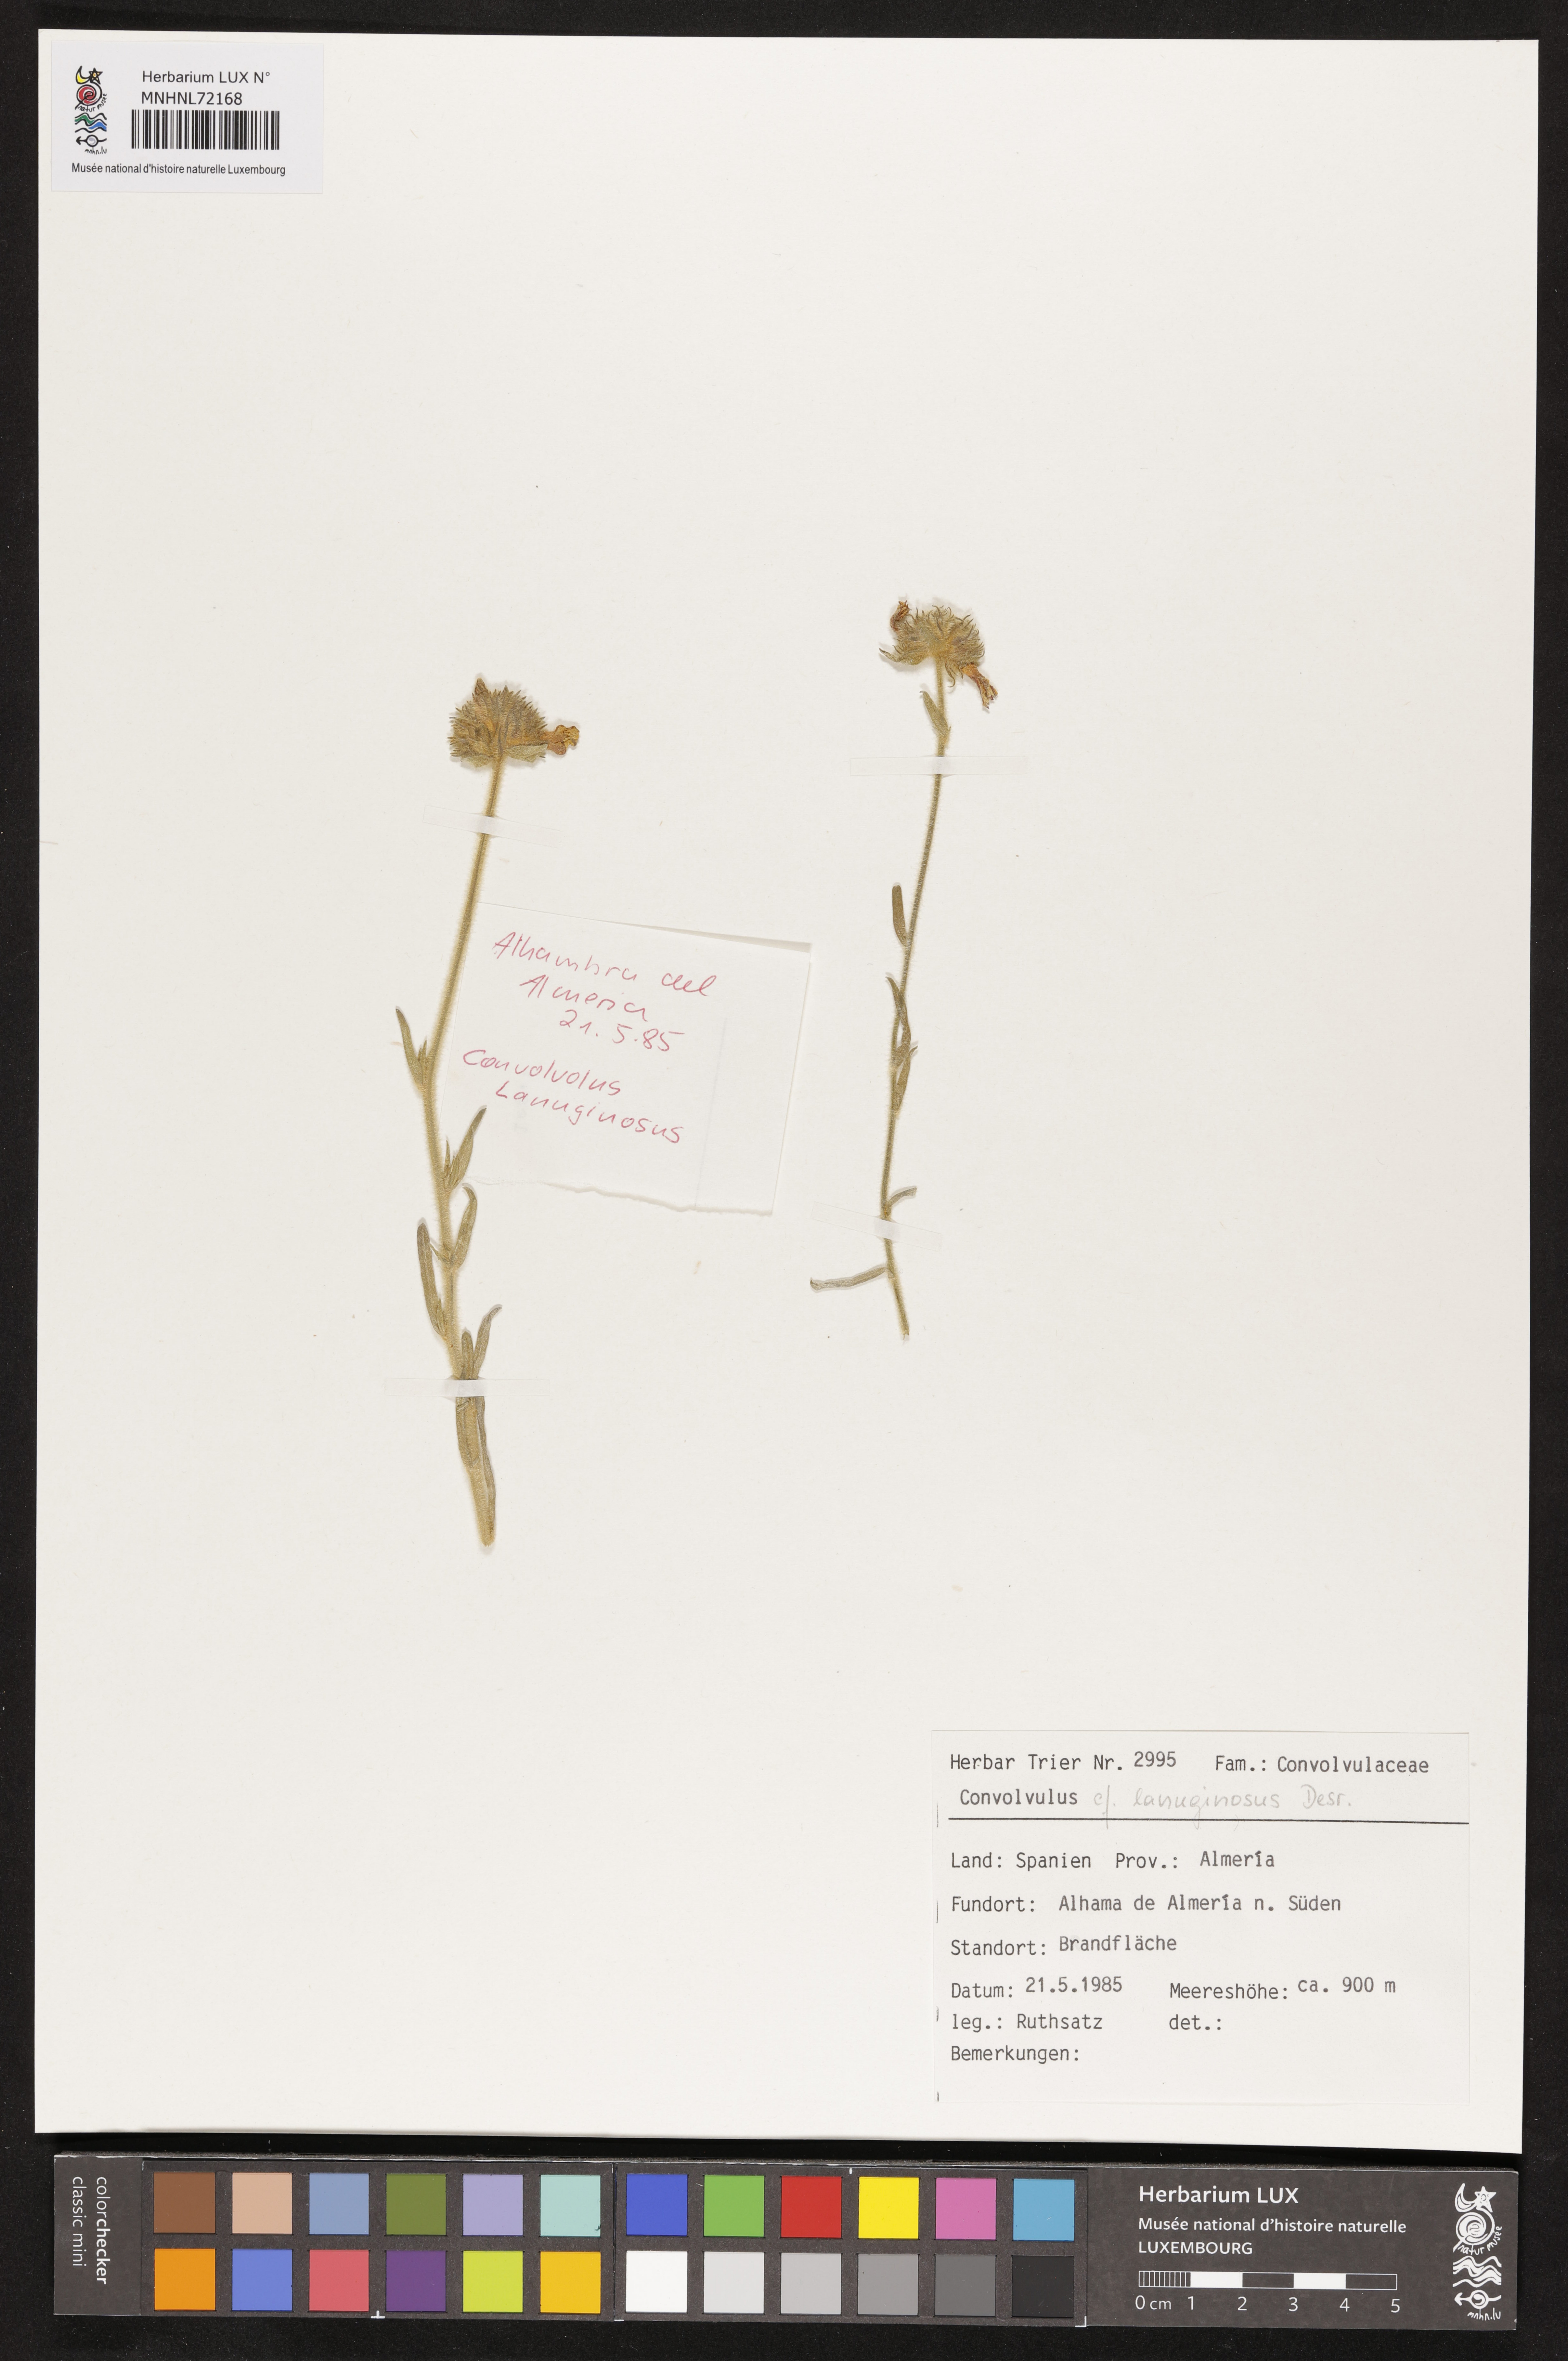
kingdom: Plantae
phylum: Tracheophyta
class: Magnoliopsida
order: Solanales
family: Convolvulaceae
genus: Convolvulus
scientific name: Convolvulus lanuginosus
